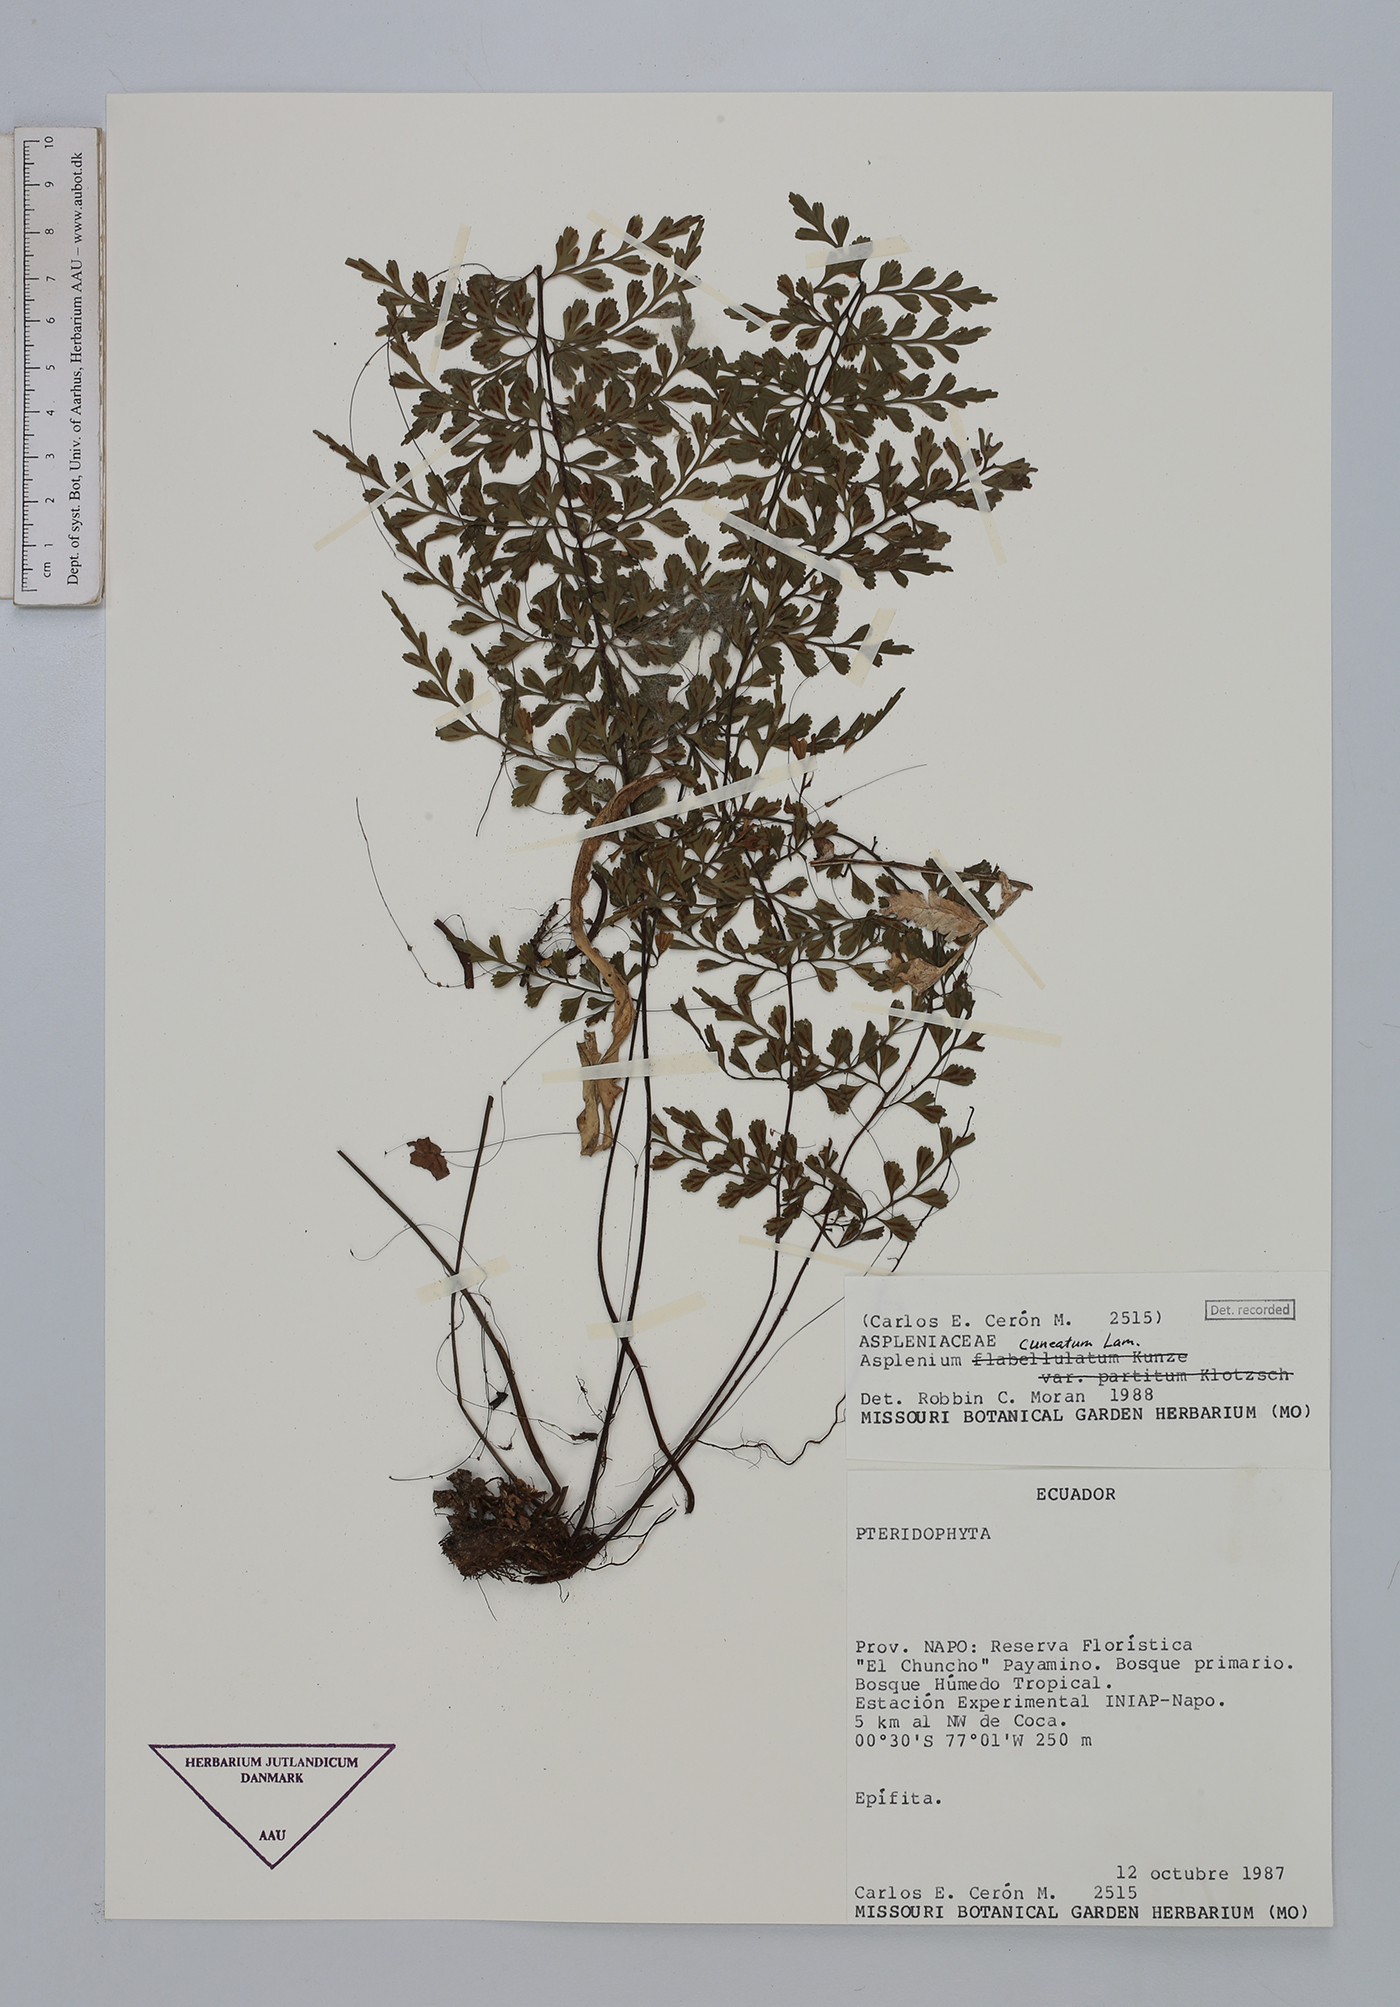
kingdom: Plantae
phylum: Tracheophyta
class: Polypodiopsida
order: Polypodiales
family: Aspleniaceae
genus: Asplenium
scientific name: Asplenium cuneatum
